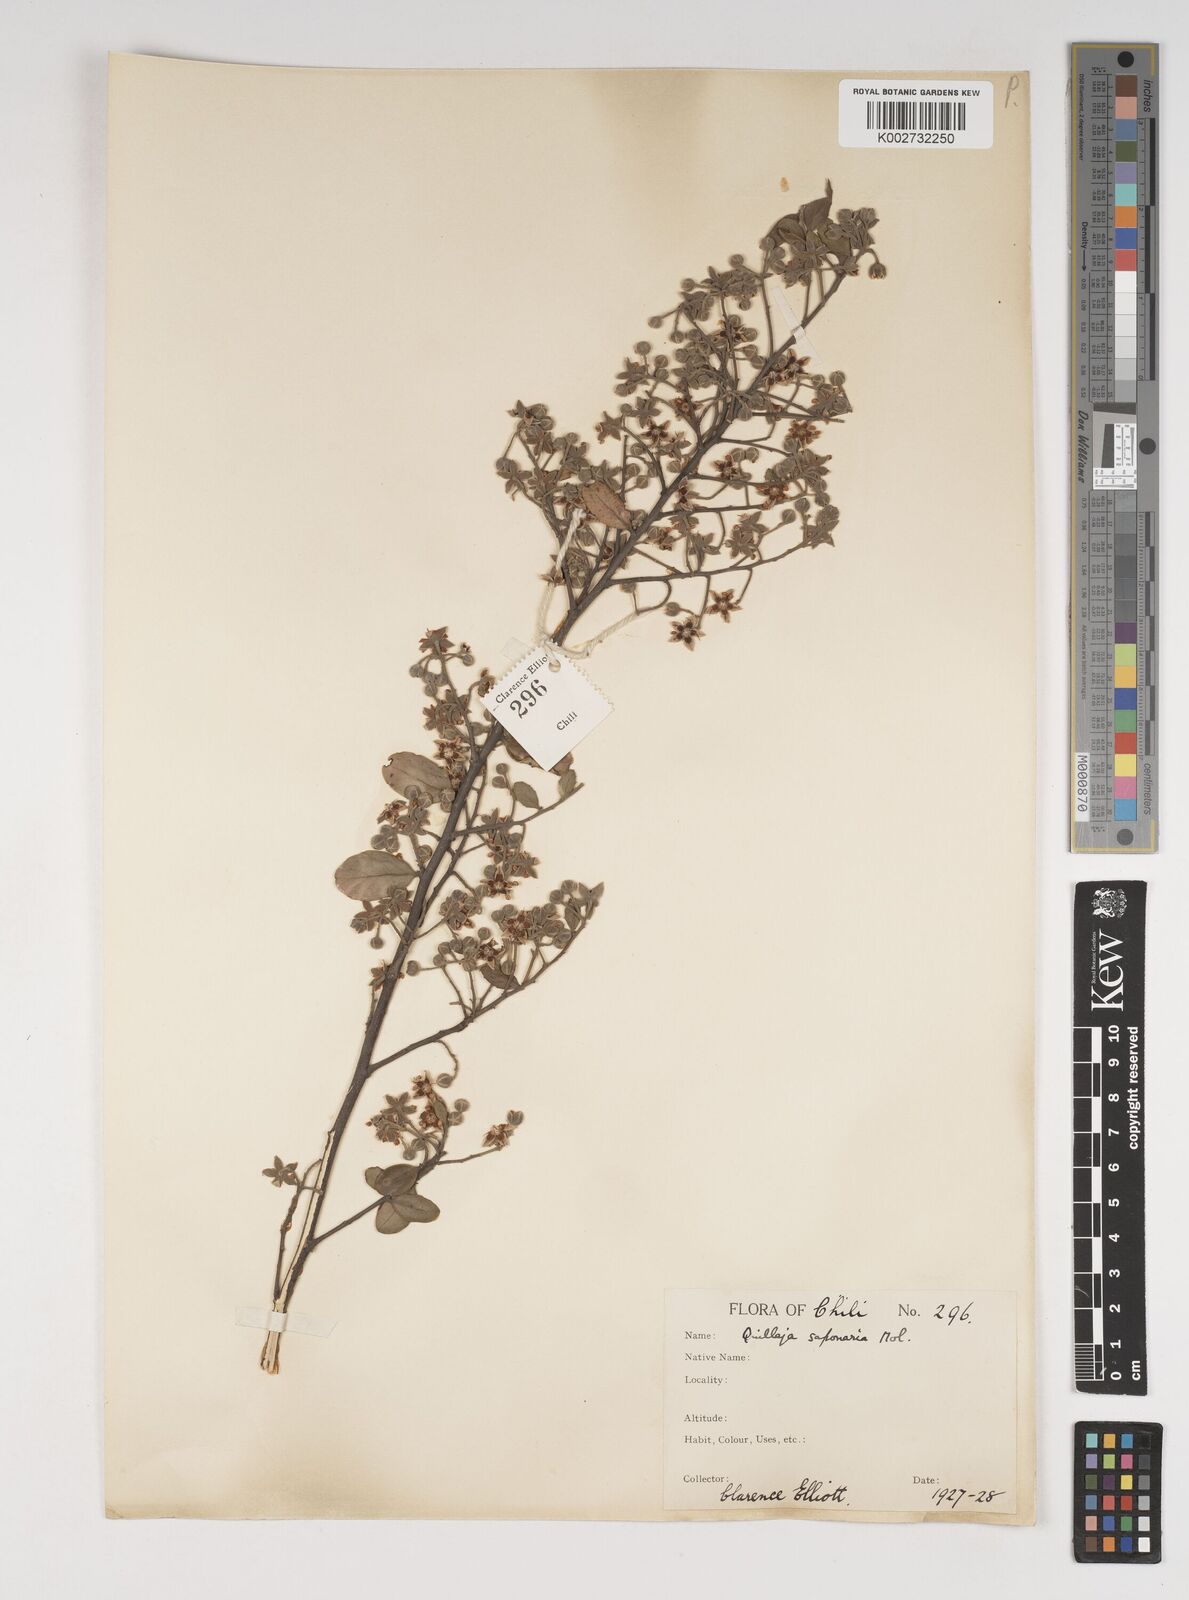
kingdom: Plantae
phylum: Tracheophyta
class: Magnoliopsida
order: Fabales
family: Quillajaceae
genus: Quillaja
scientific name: Quillaja saponaria
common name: Murillo's-bark
